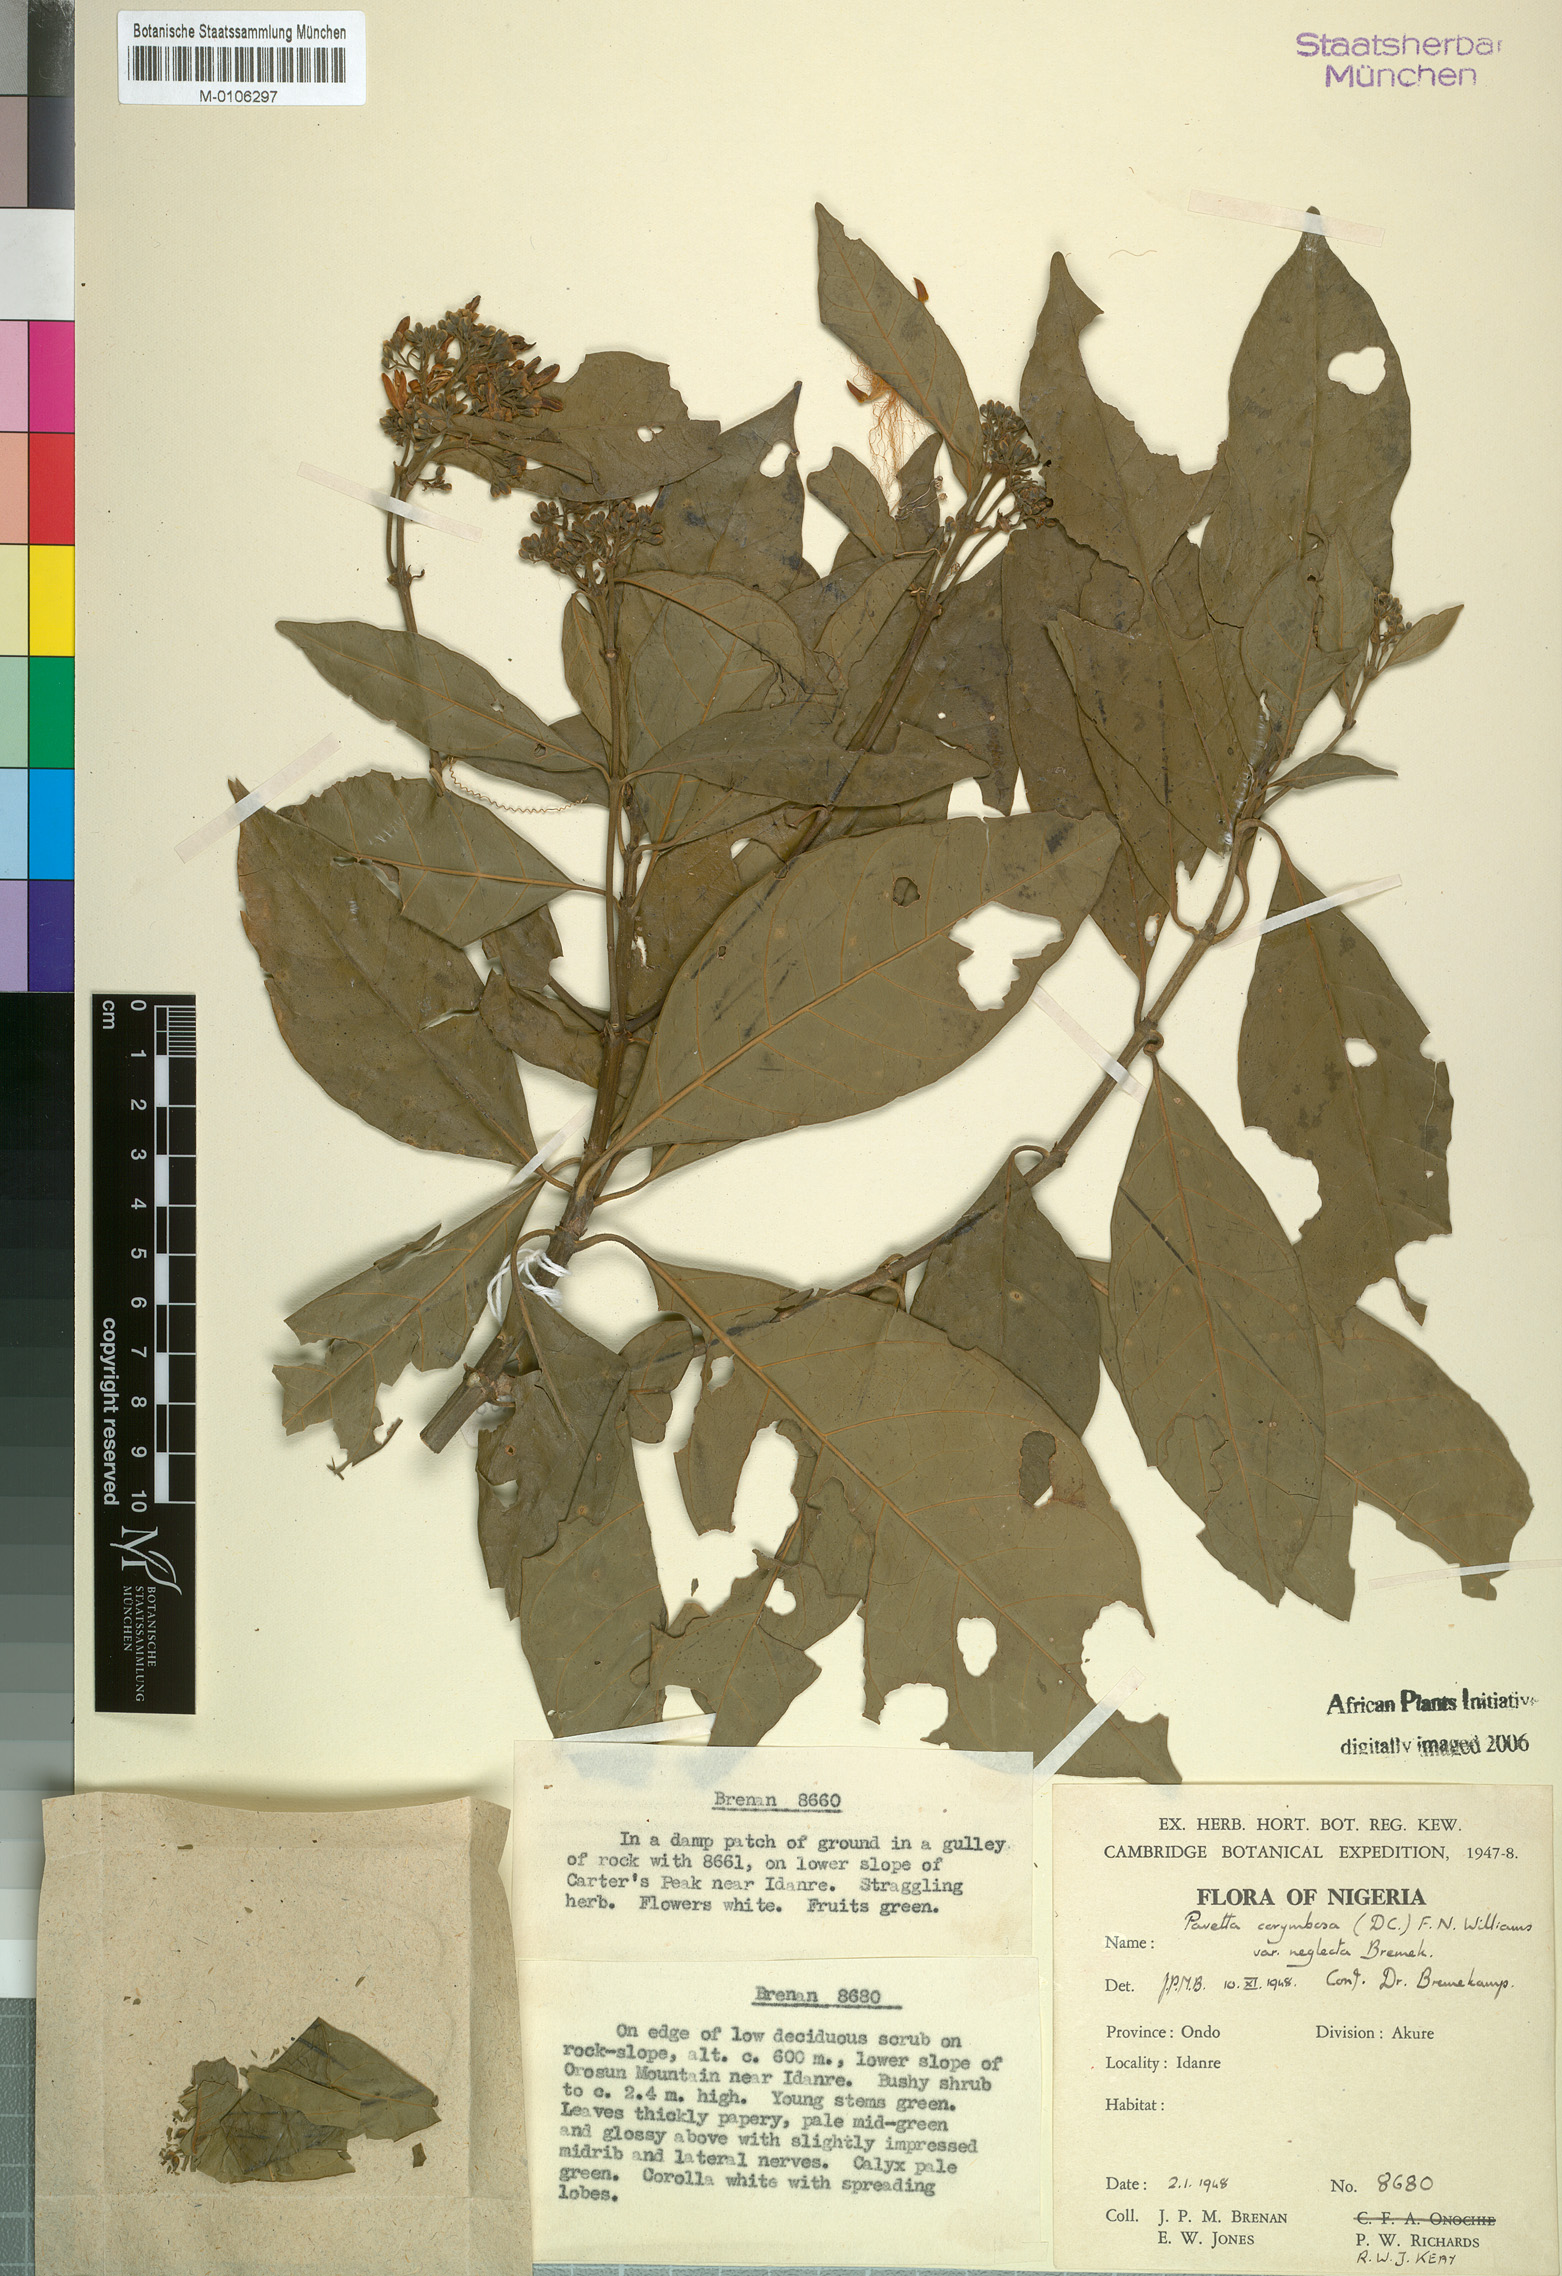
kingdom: Plantae
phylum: Tracheophyta
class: Magnoliopsida
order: Gentianales
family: Rubiaceae
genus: Pavetta
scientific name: Pavetta corymbosa
